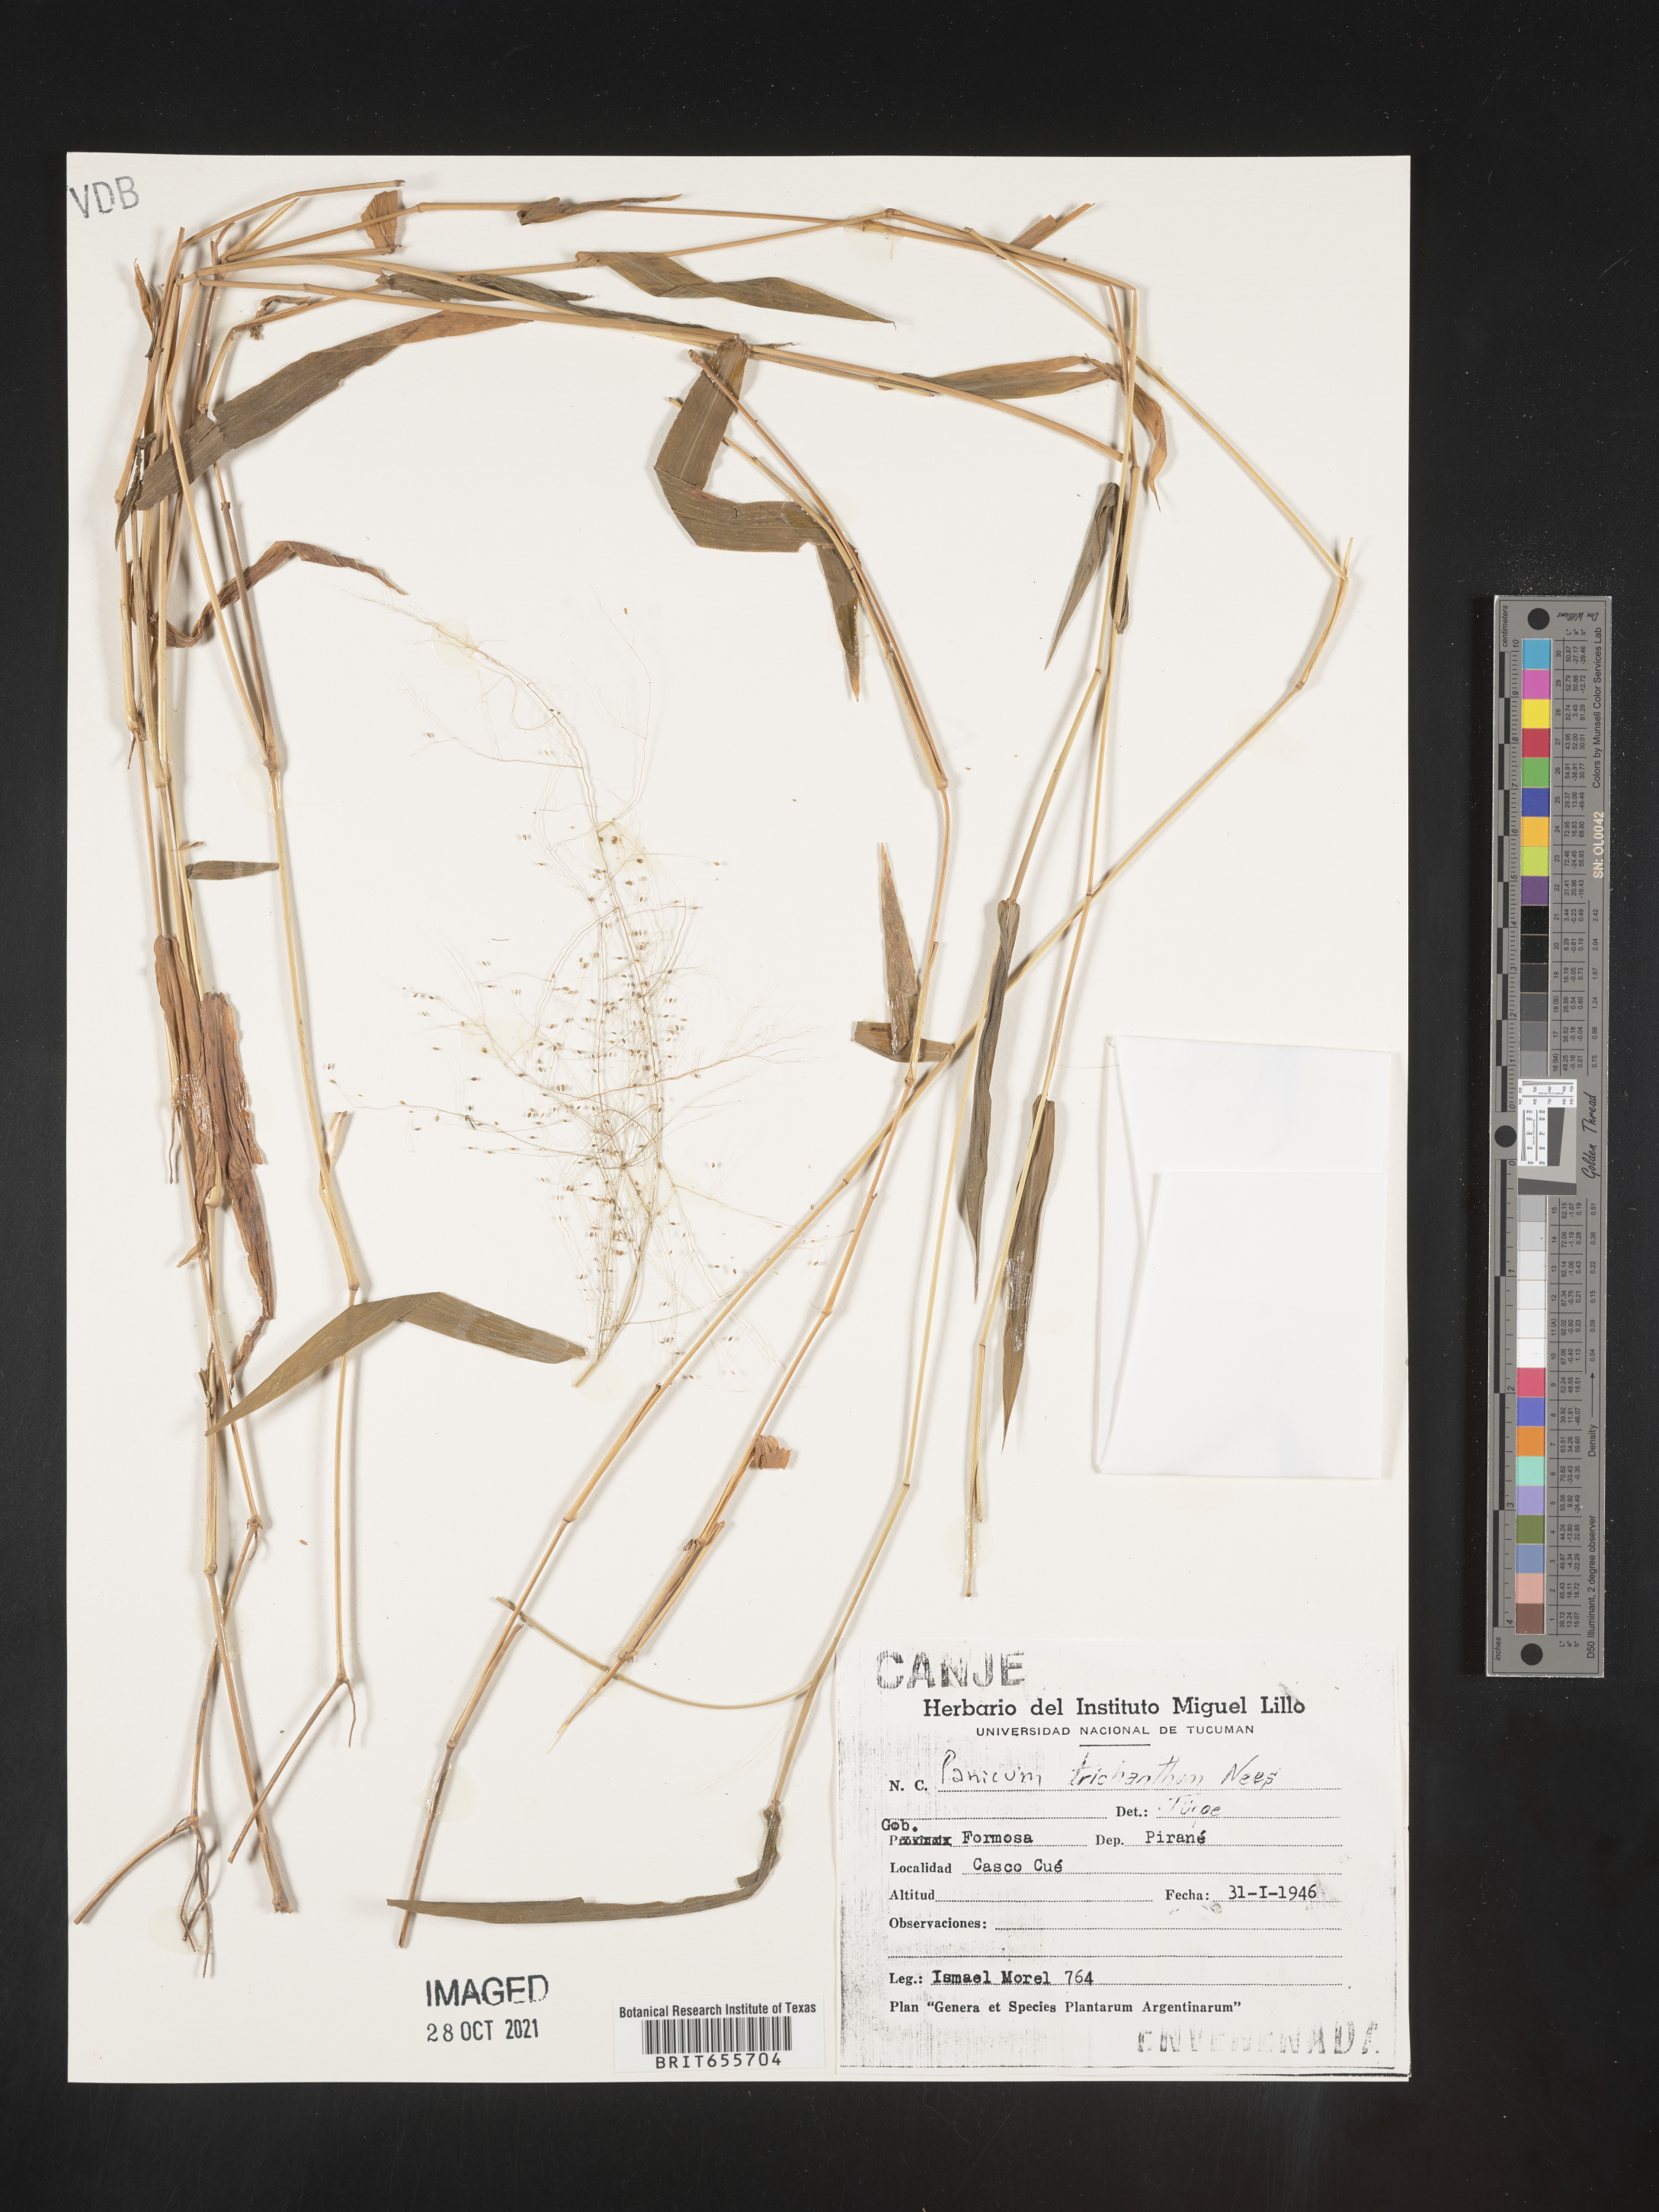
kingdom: Plantae
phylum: Tracheophyta
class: Liliopsida
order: Poales
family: Poaceae
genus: Panicum
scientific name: Panicum
